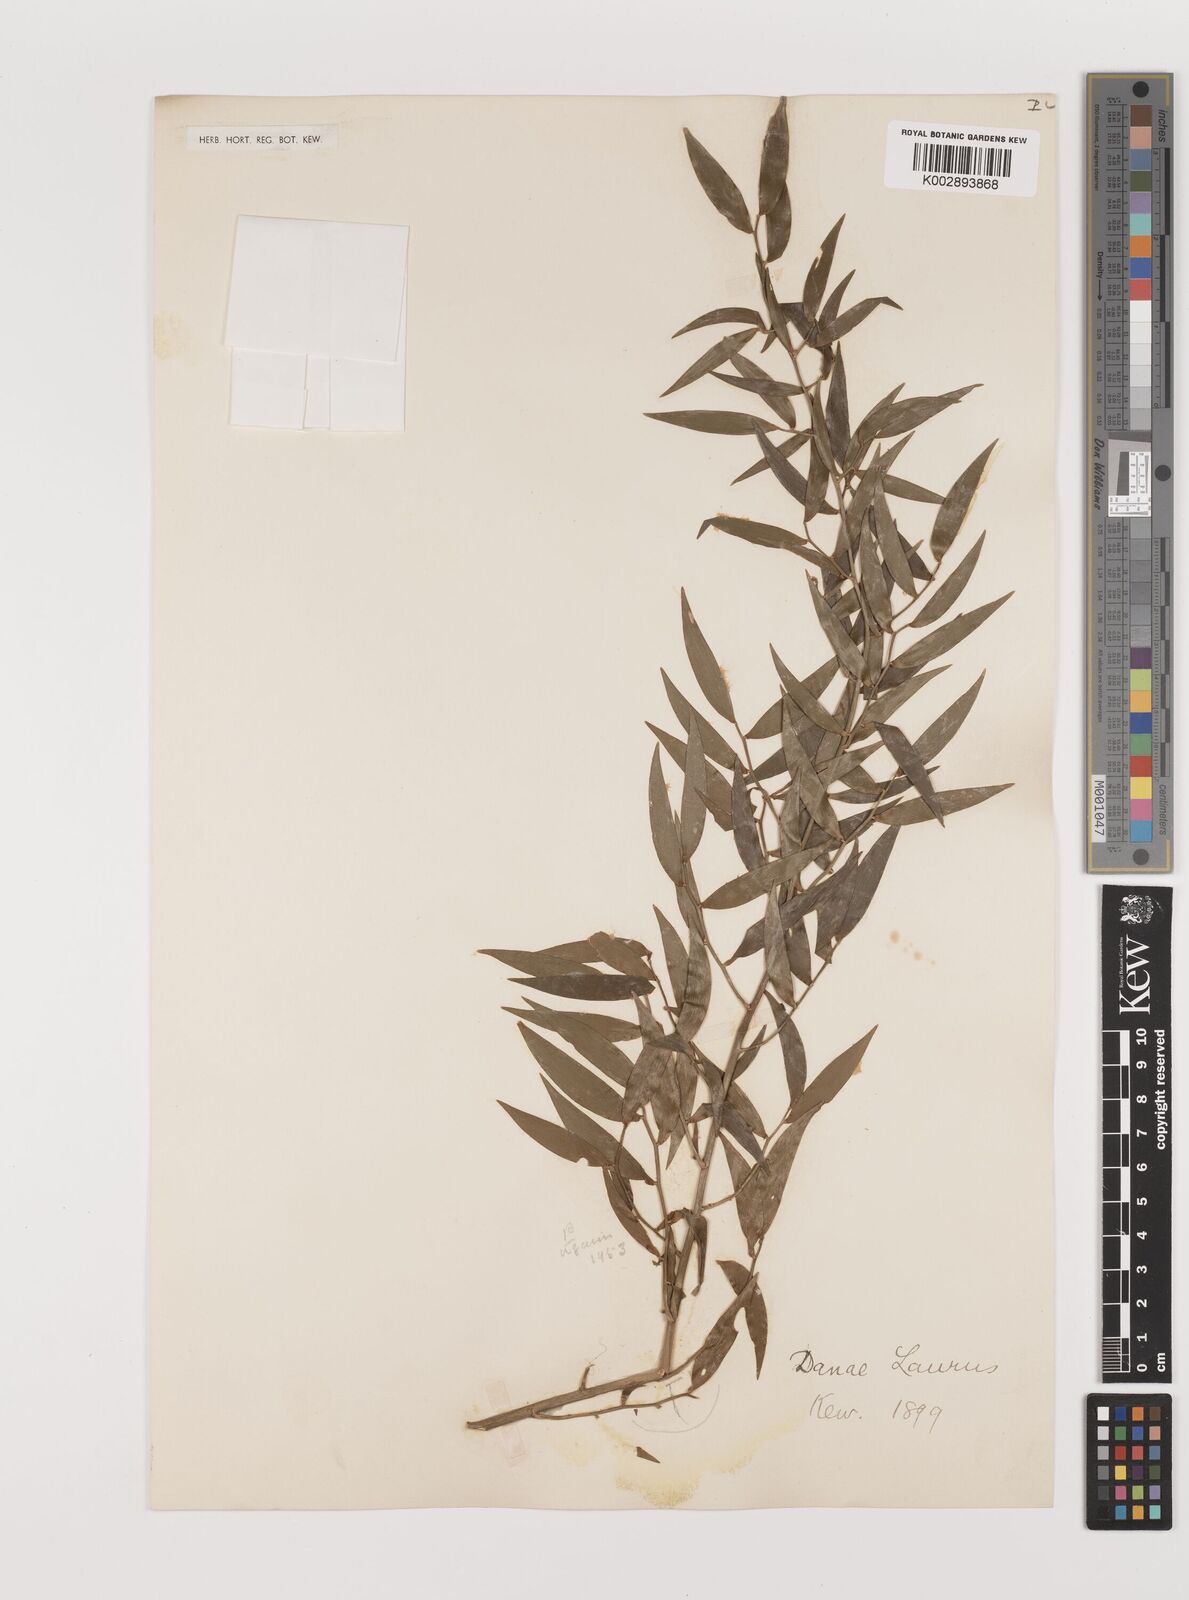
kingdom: Plantae
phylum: Tracheophyta
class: Liliopsida
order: Asparagales
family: Asparagaceae
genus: Danae
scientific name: Danae racemosa
